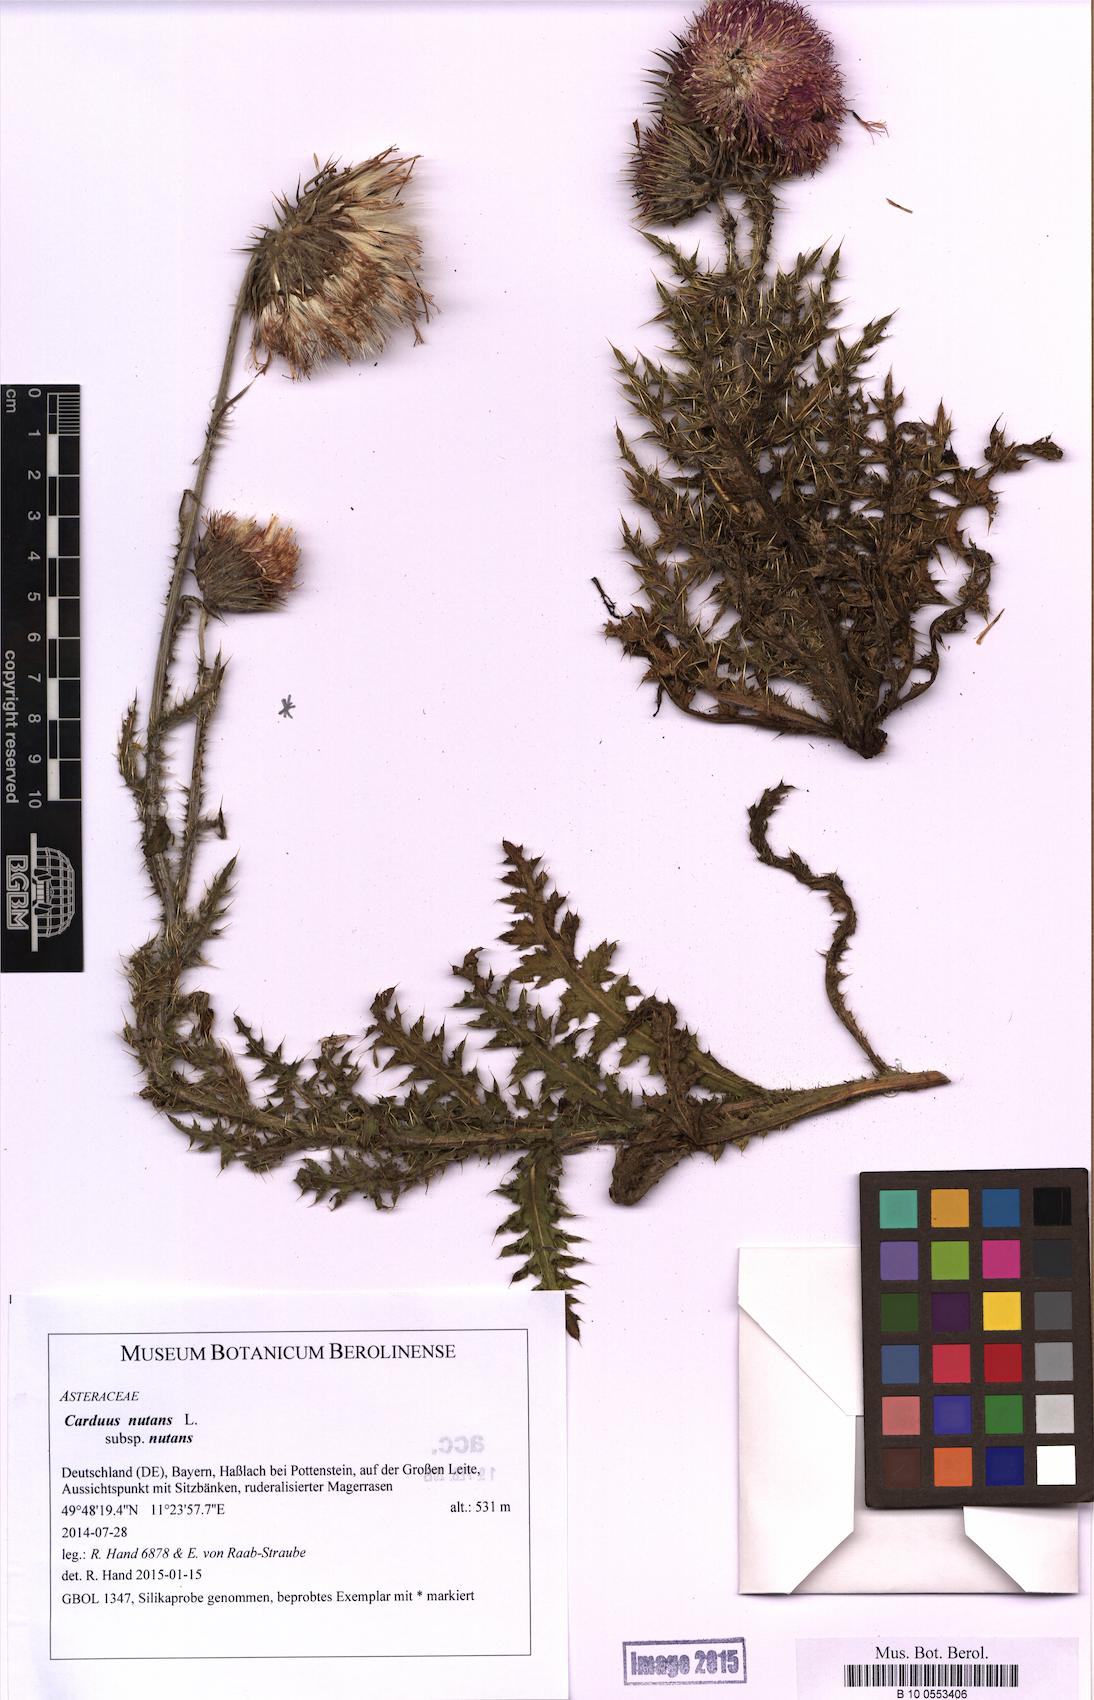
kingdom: Plantae
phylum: Tracheophyta
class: Magnoliopsida
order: Asterales
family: Asteraceae
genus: Carduus
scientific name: Carduus nutans
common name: Musk thistle
